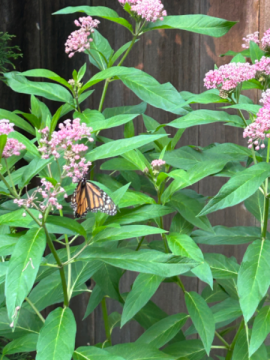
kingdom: Animalia
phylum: Arthropoda
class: Insecta
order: Lepidoptera
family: Nymphalidae
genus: Danaus
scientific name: Danaus plexippus
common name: Monarch
